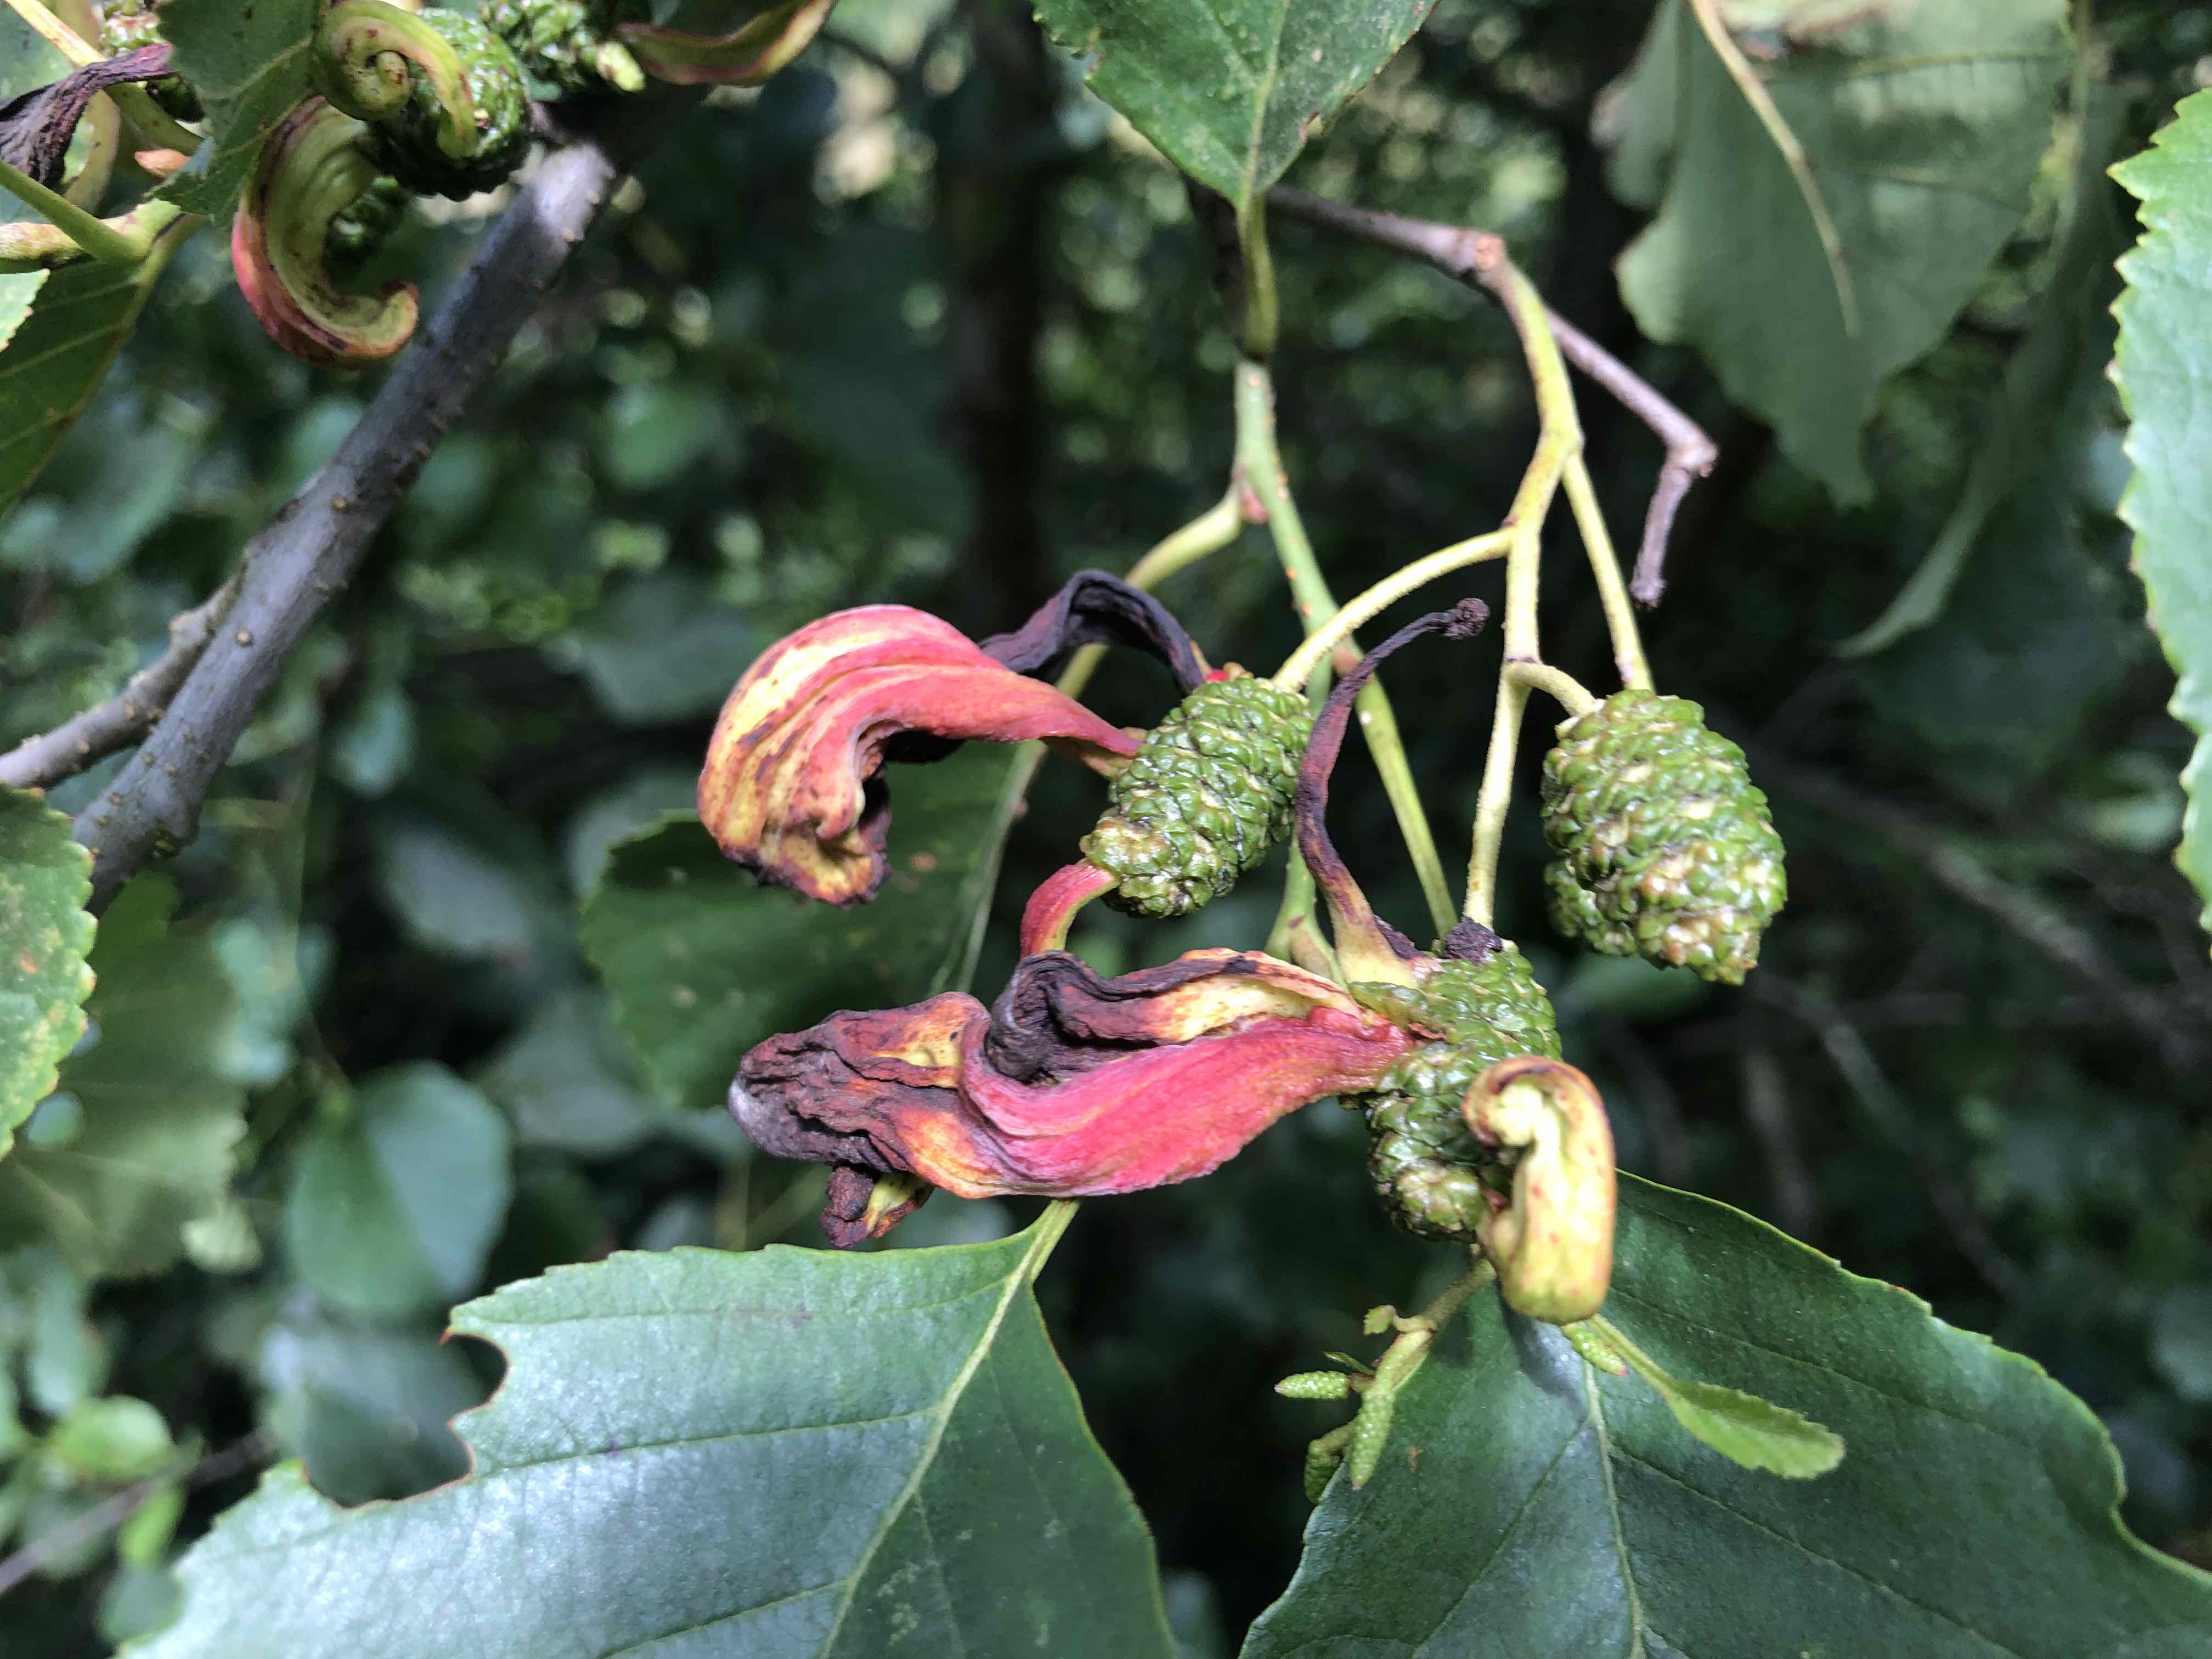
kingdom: Fungi
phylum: Ascomycota
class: Taphrinomycetes
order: Taphrinales
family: Taphrinaceae
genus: Taphrina
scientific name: Taphrina alni
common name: Alder tongue
